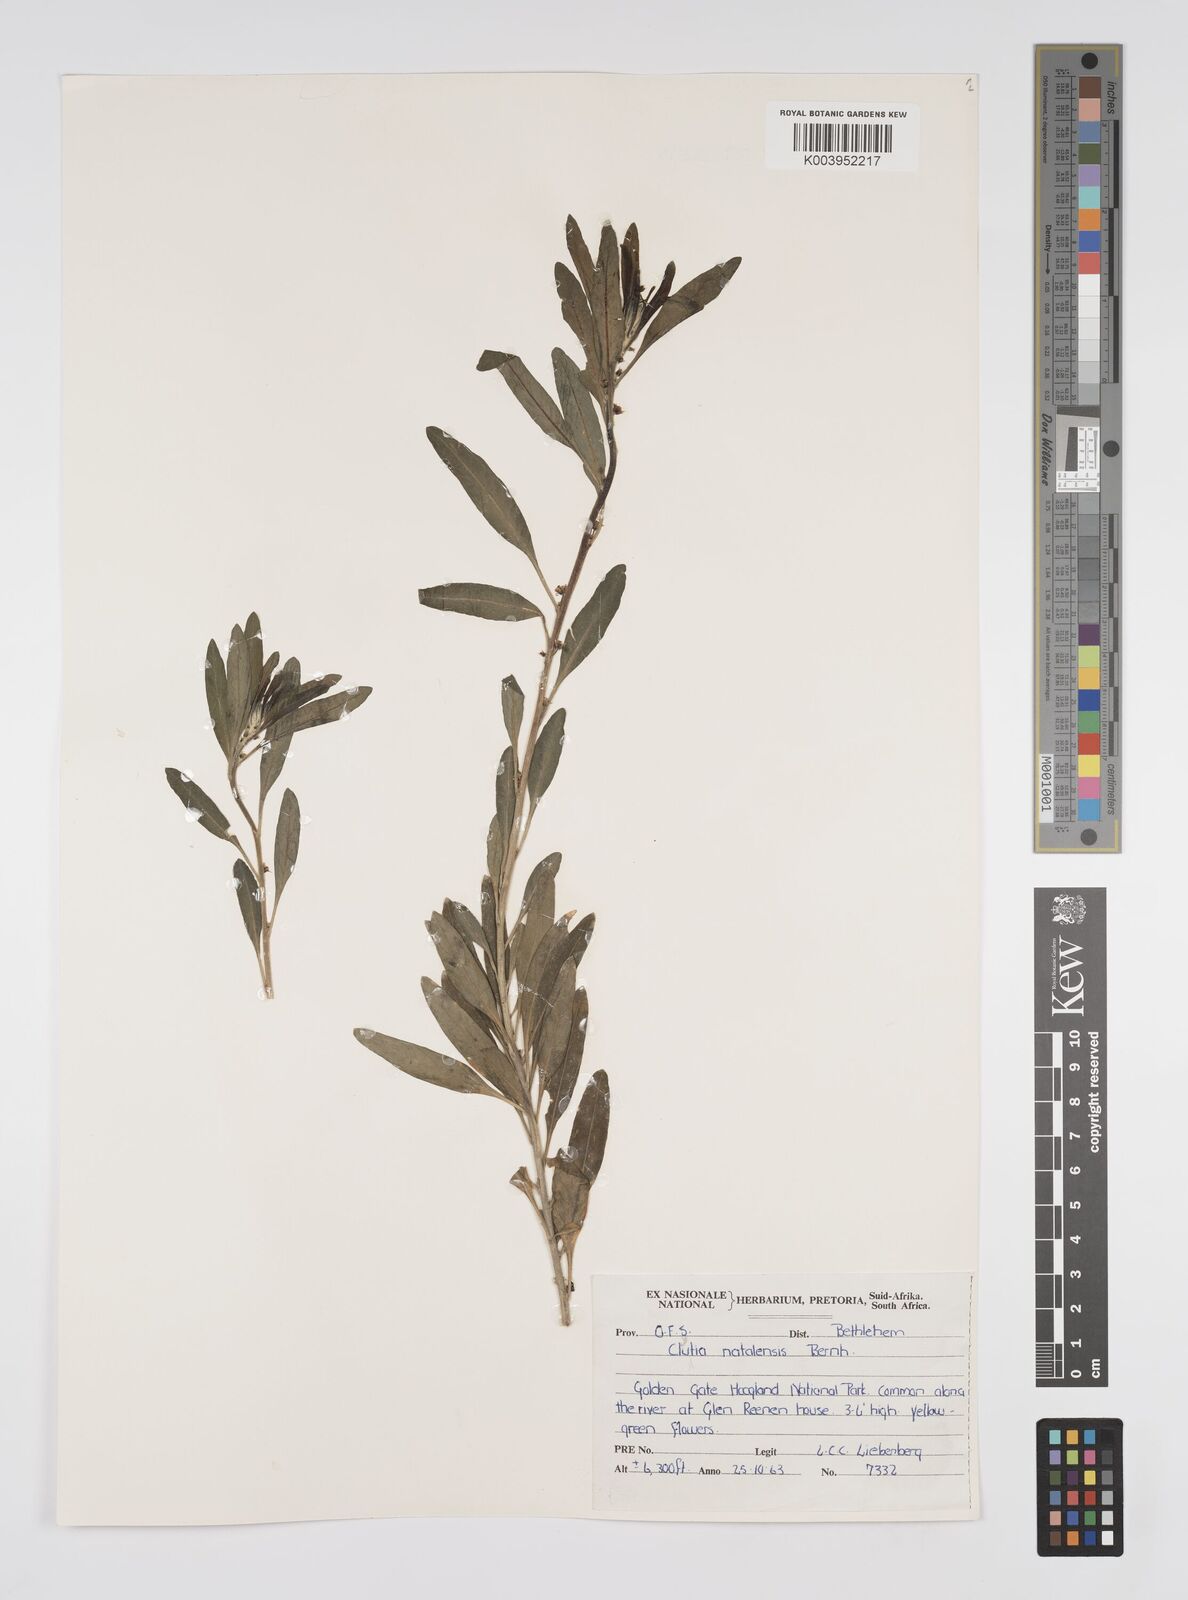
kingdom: Plantae
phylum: Tracheophyta
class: Magnoliopsida
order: Malpighiales
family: Peraceae
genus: Clutia
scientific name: Clutia natalensis
